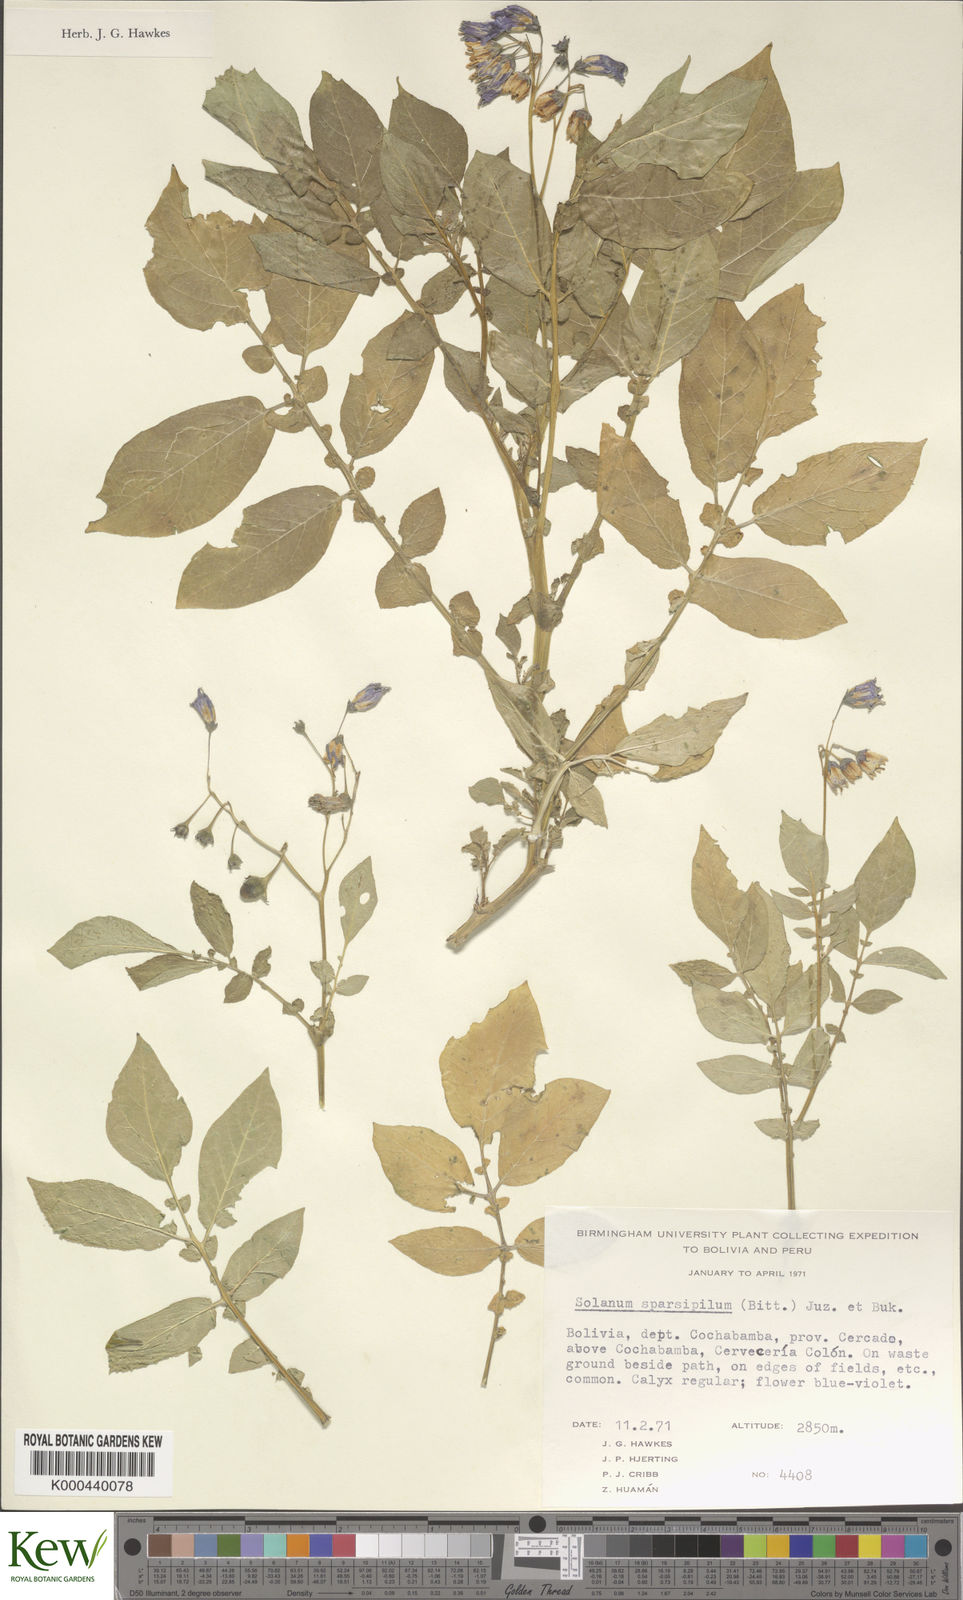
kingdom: Plantae
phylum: Tracheophyta
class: Magnoliopsida
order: Solanales
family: Solanaceae
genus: Solanum
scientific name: Solanum brevicaule
